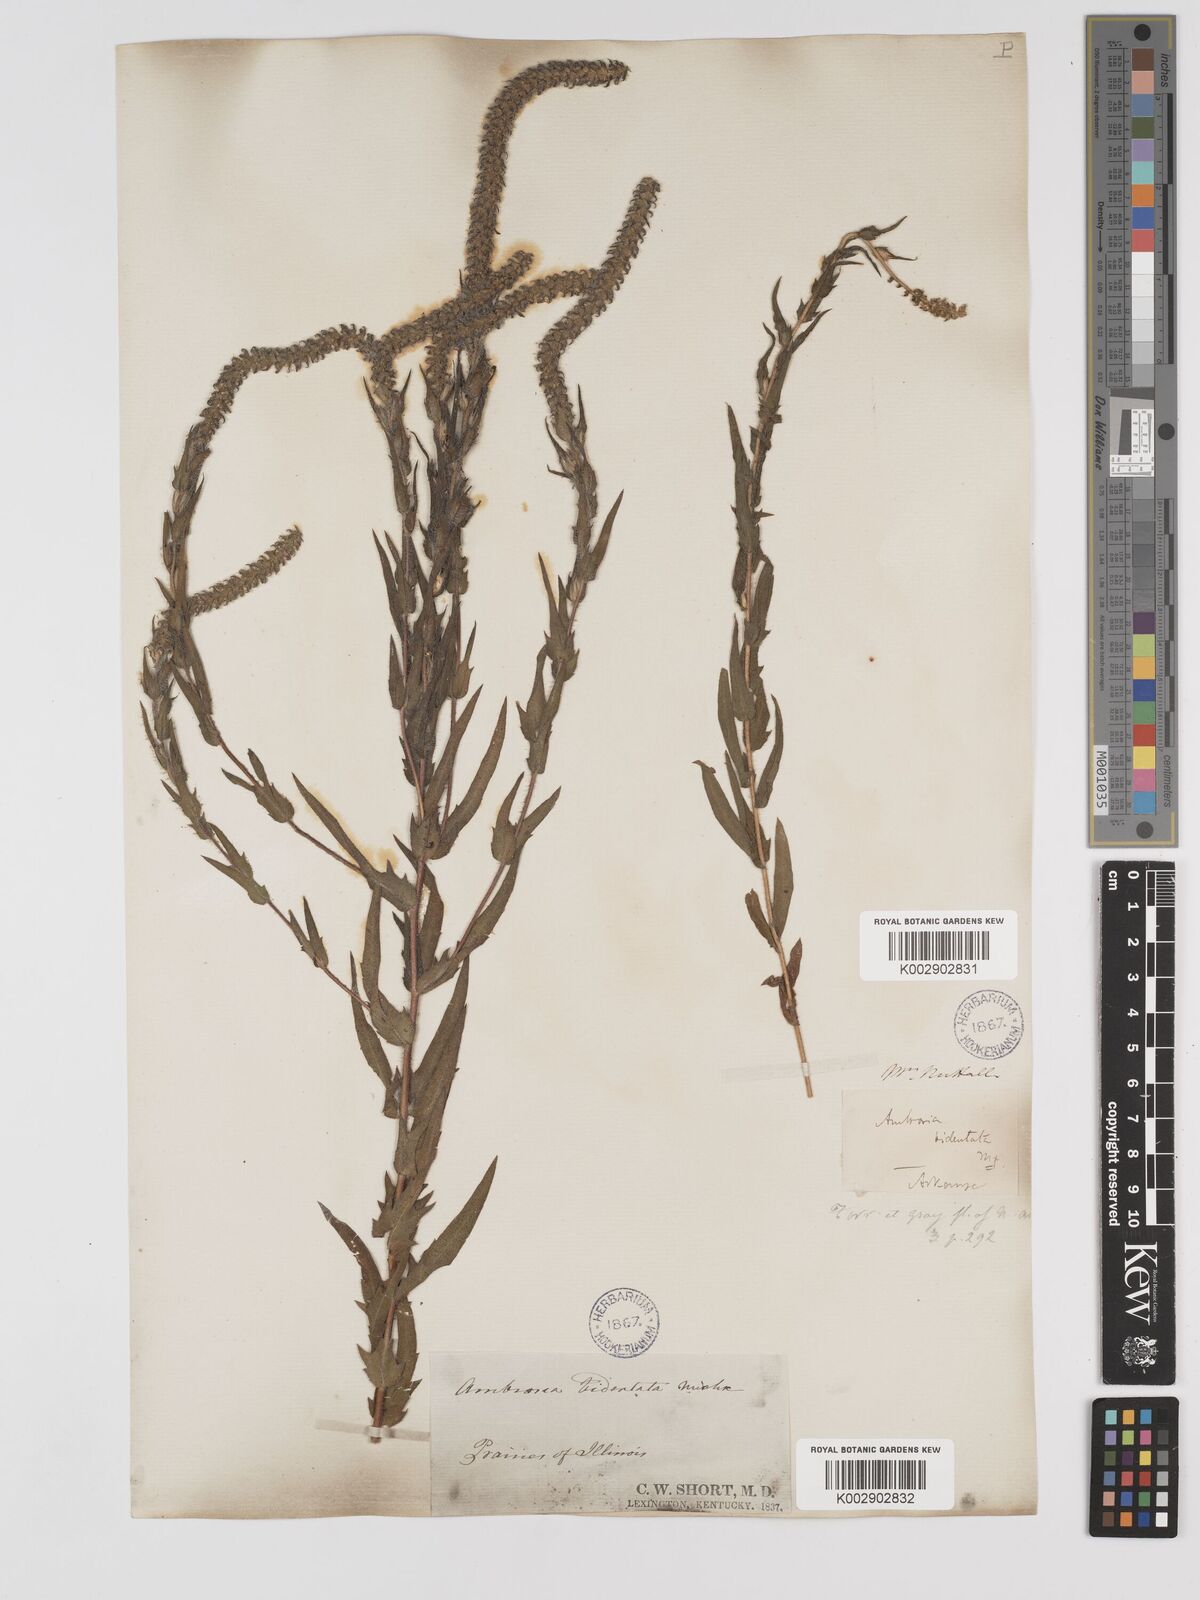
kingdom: Plantae
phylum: Tracheophyta
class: Magnoliopsida
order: Asterales
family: Asteraceae
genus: Ambrosia
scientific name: Ambrosia bidentata
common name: Southern ragweed
